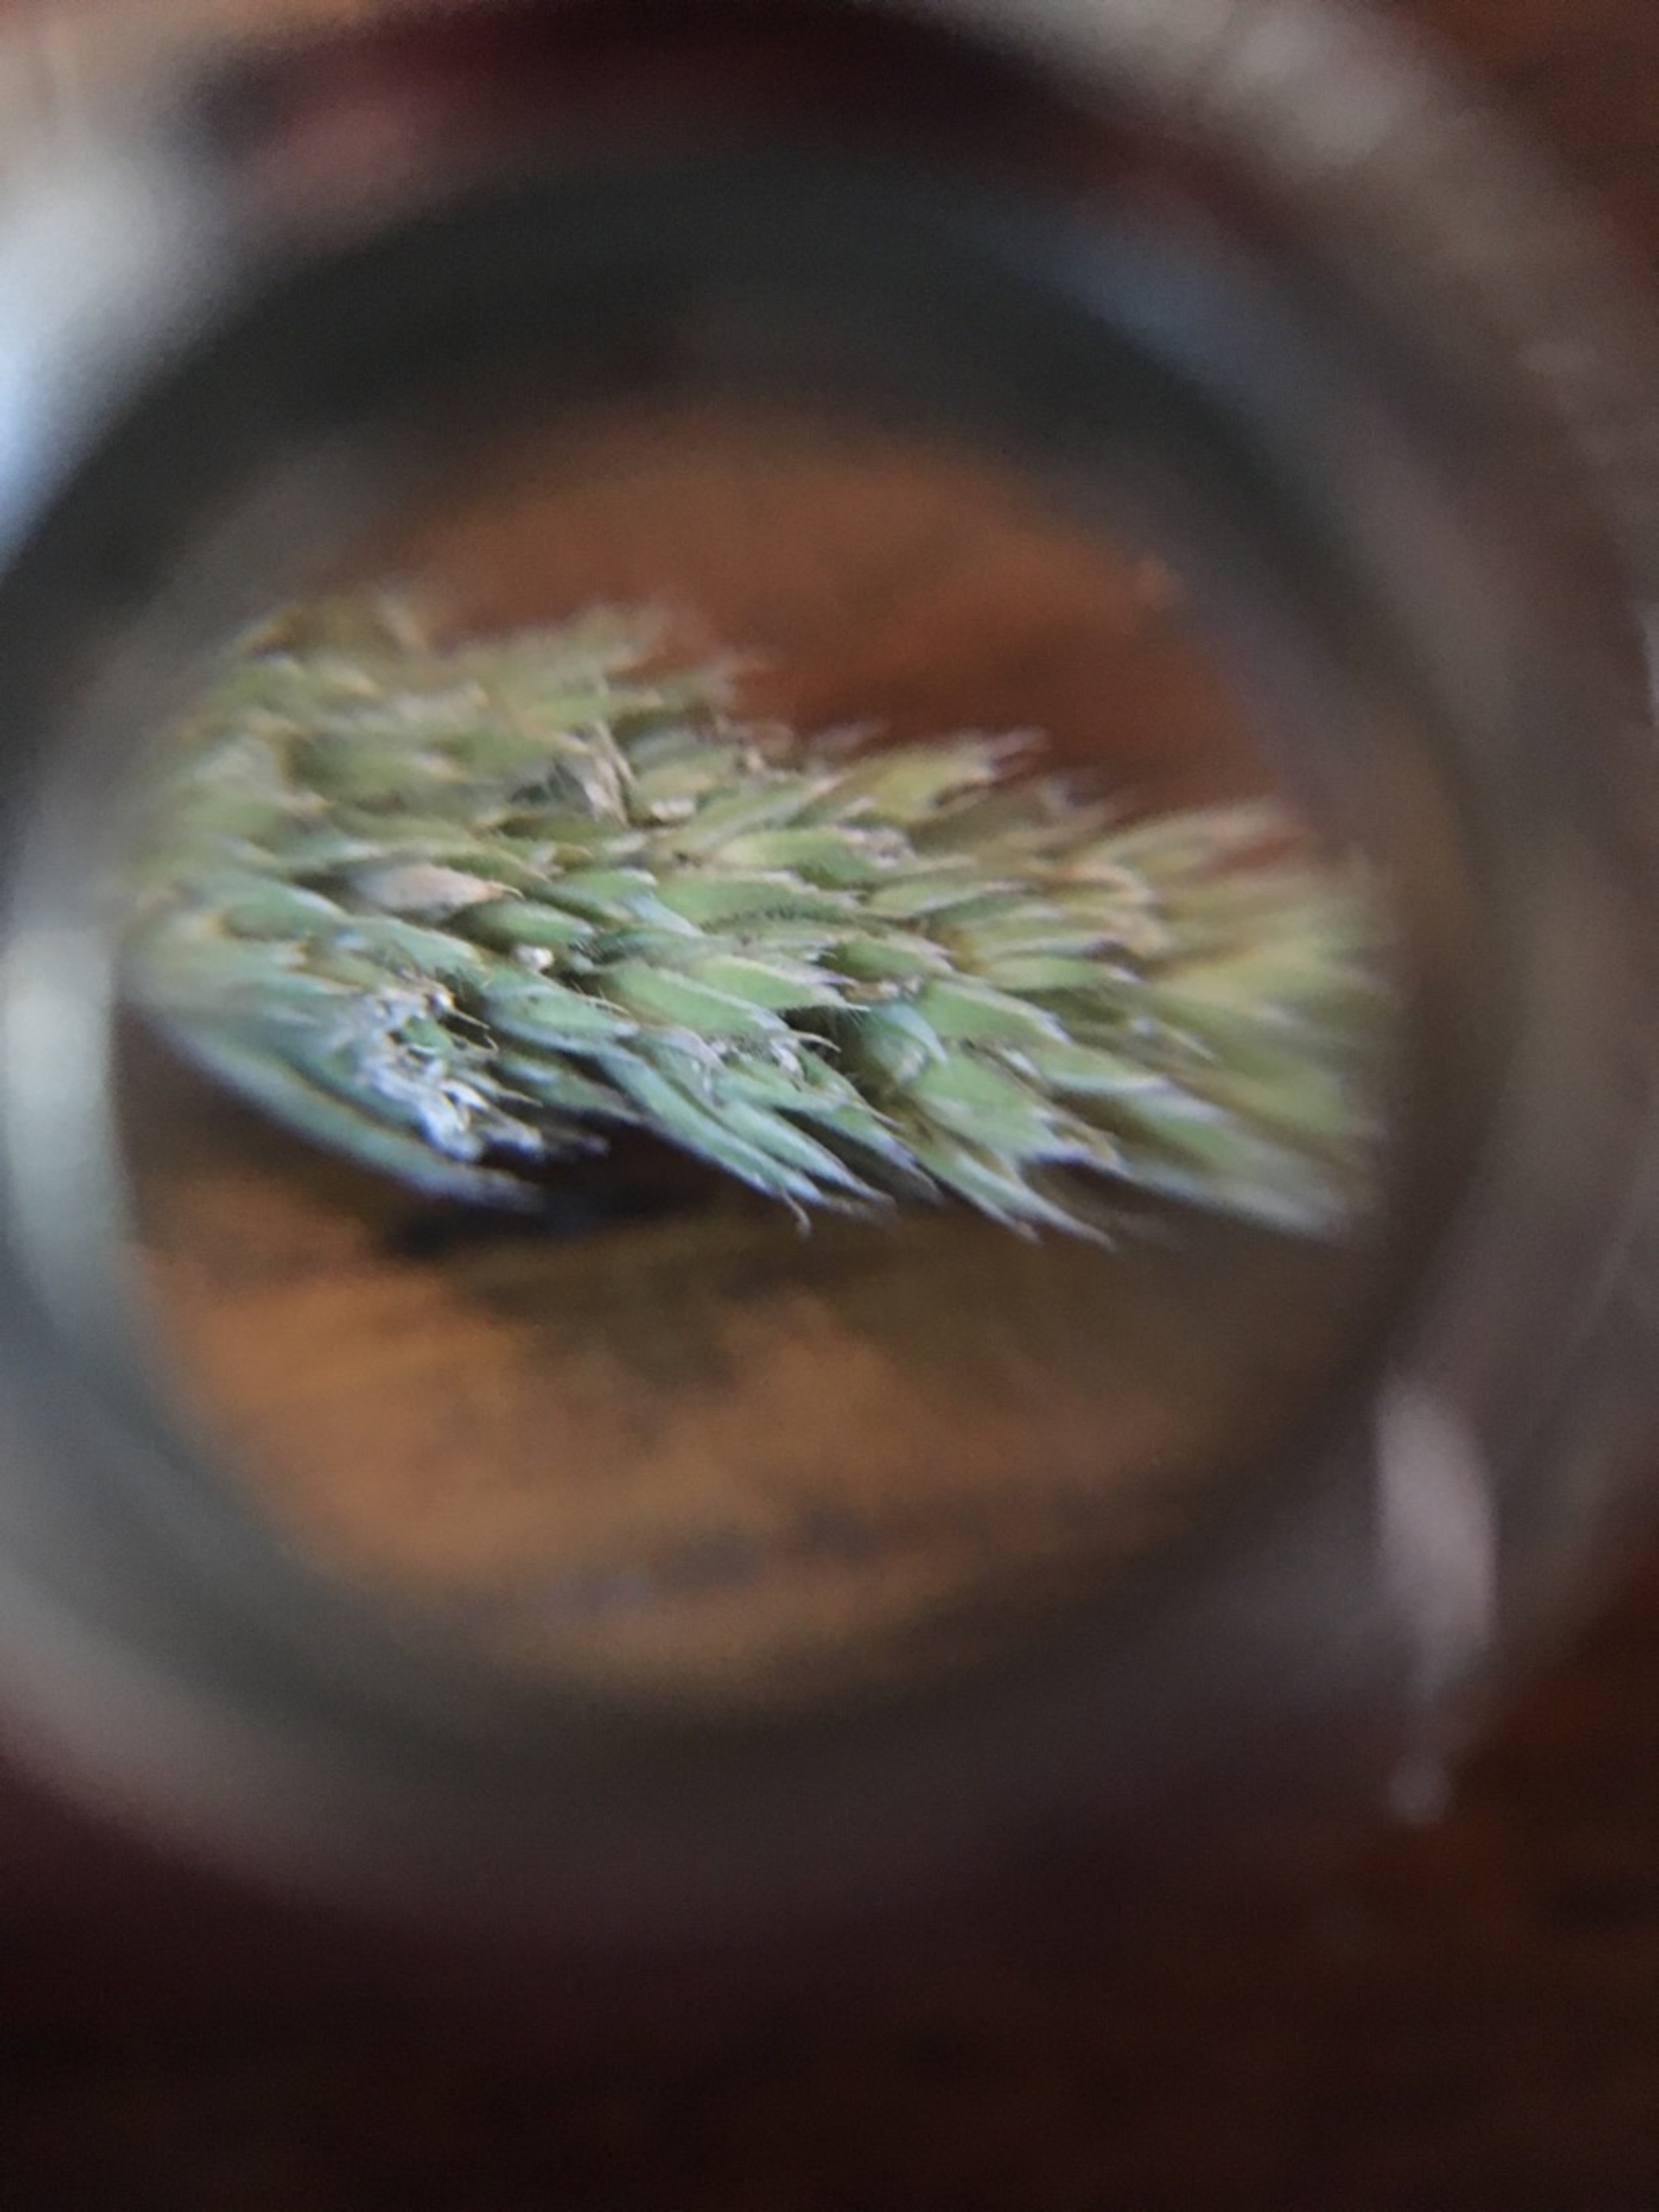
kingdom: Plantae
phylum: Tracheophyta
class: Liliopsida
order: Poales
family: Poaceae
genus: Dactylis
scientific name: Dactylis glomerata
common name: Almindelig hundegræs
